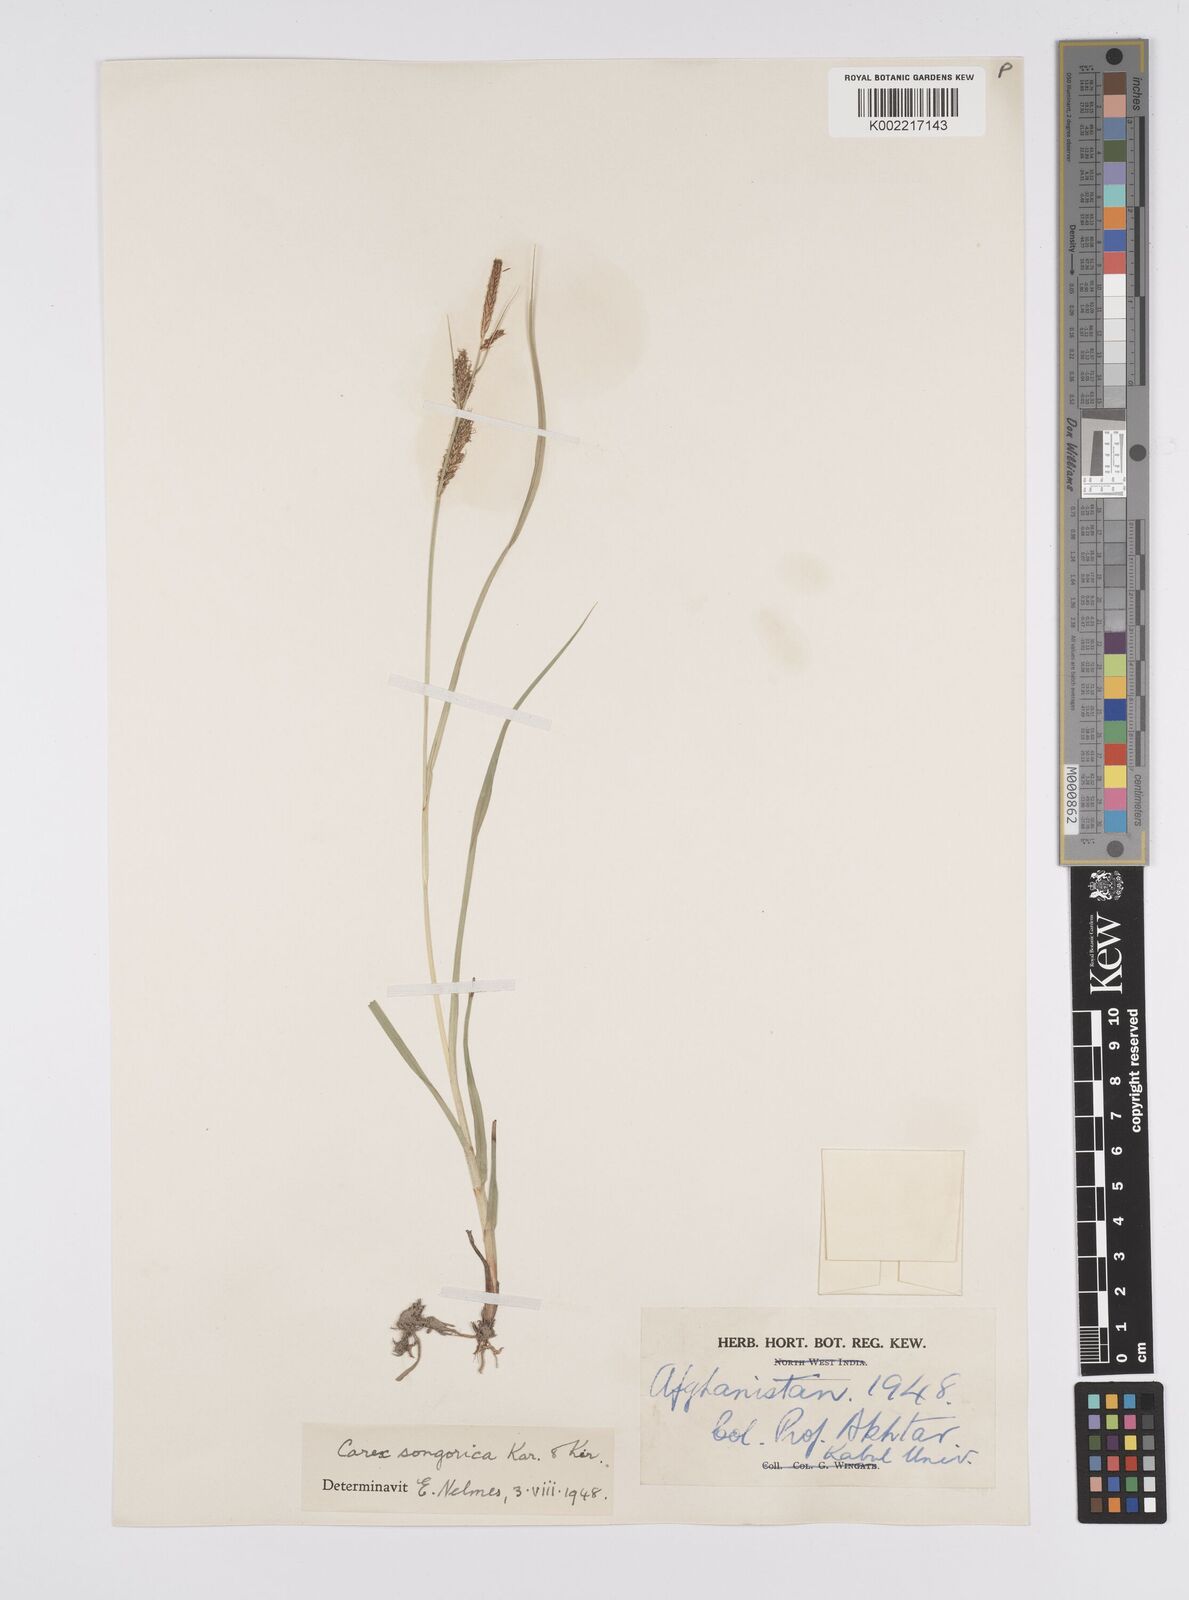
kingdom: Plantae
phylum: Tracheophyta
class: Liliopsida
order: Poales
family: Cyperaceae
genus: Carex
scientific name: Carex heterostachya
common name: Different-spike sedge
